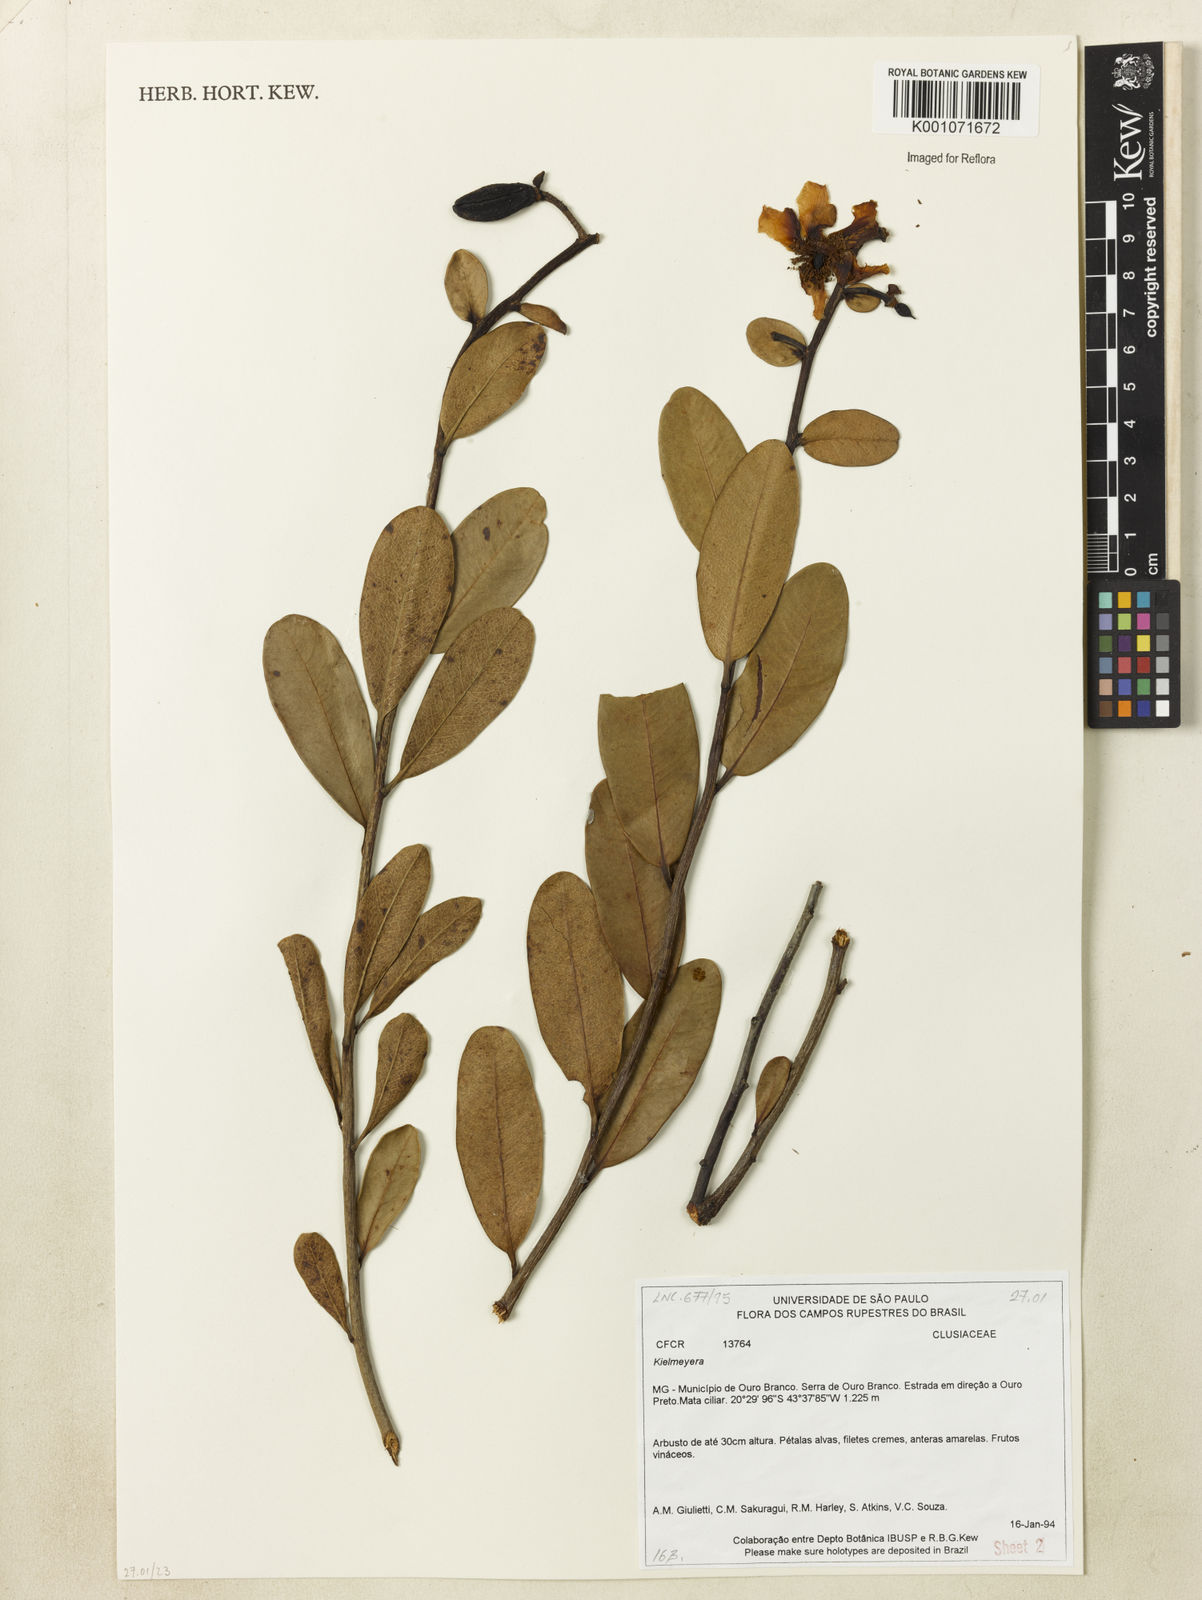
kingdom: Plantae
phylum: Tracheophyta
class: Magnoliopsida
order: Malpighiales
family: Calophyllaceae
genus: Kielmeyera
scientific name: Kielmeyera variabilis
